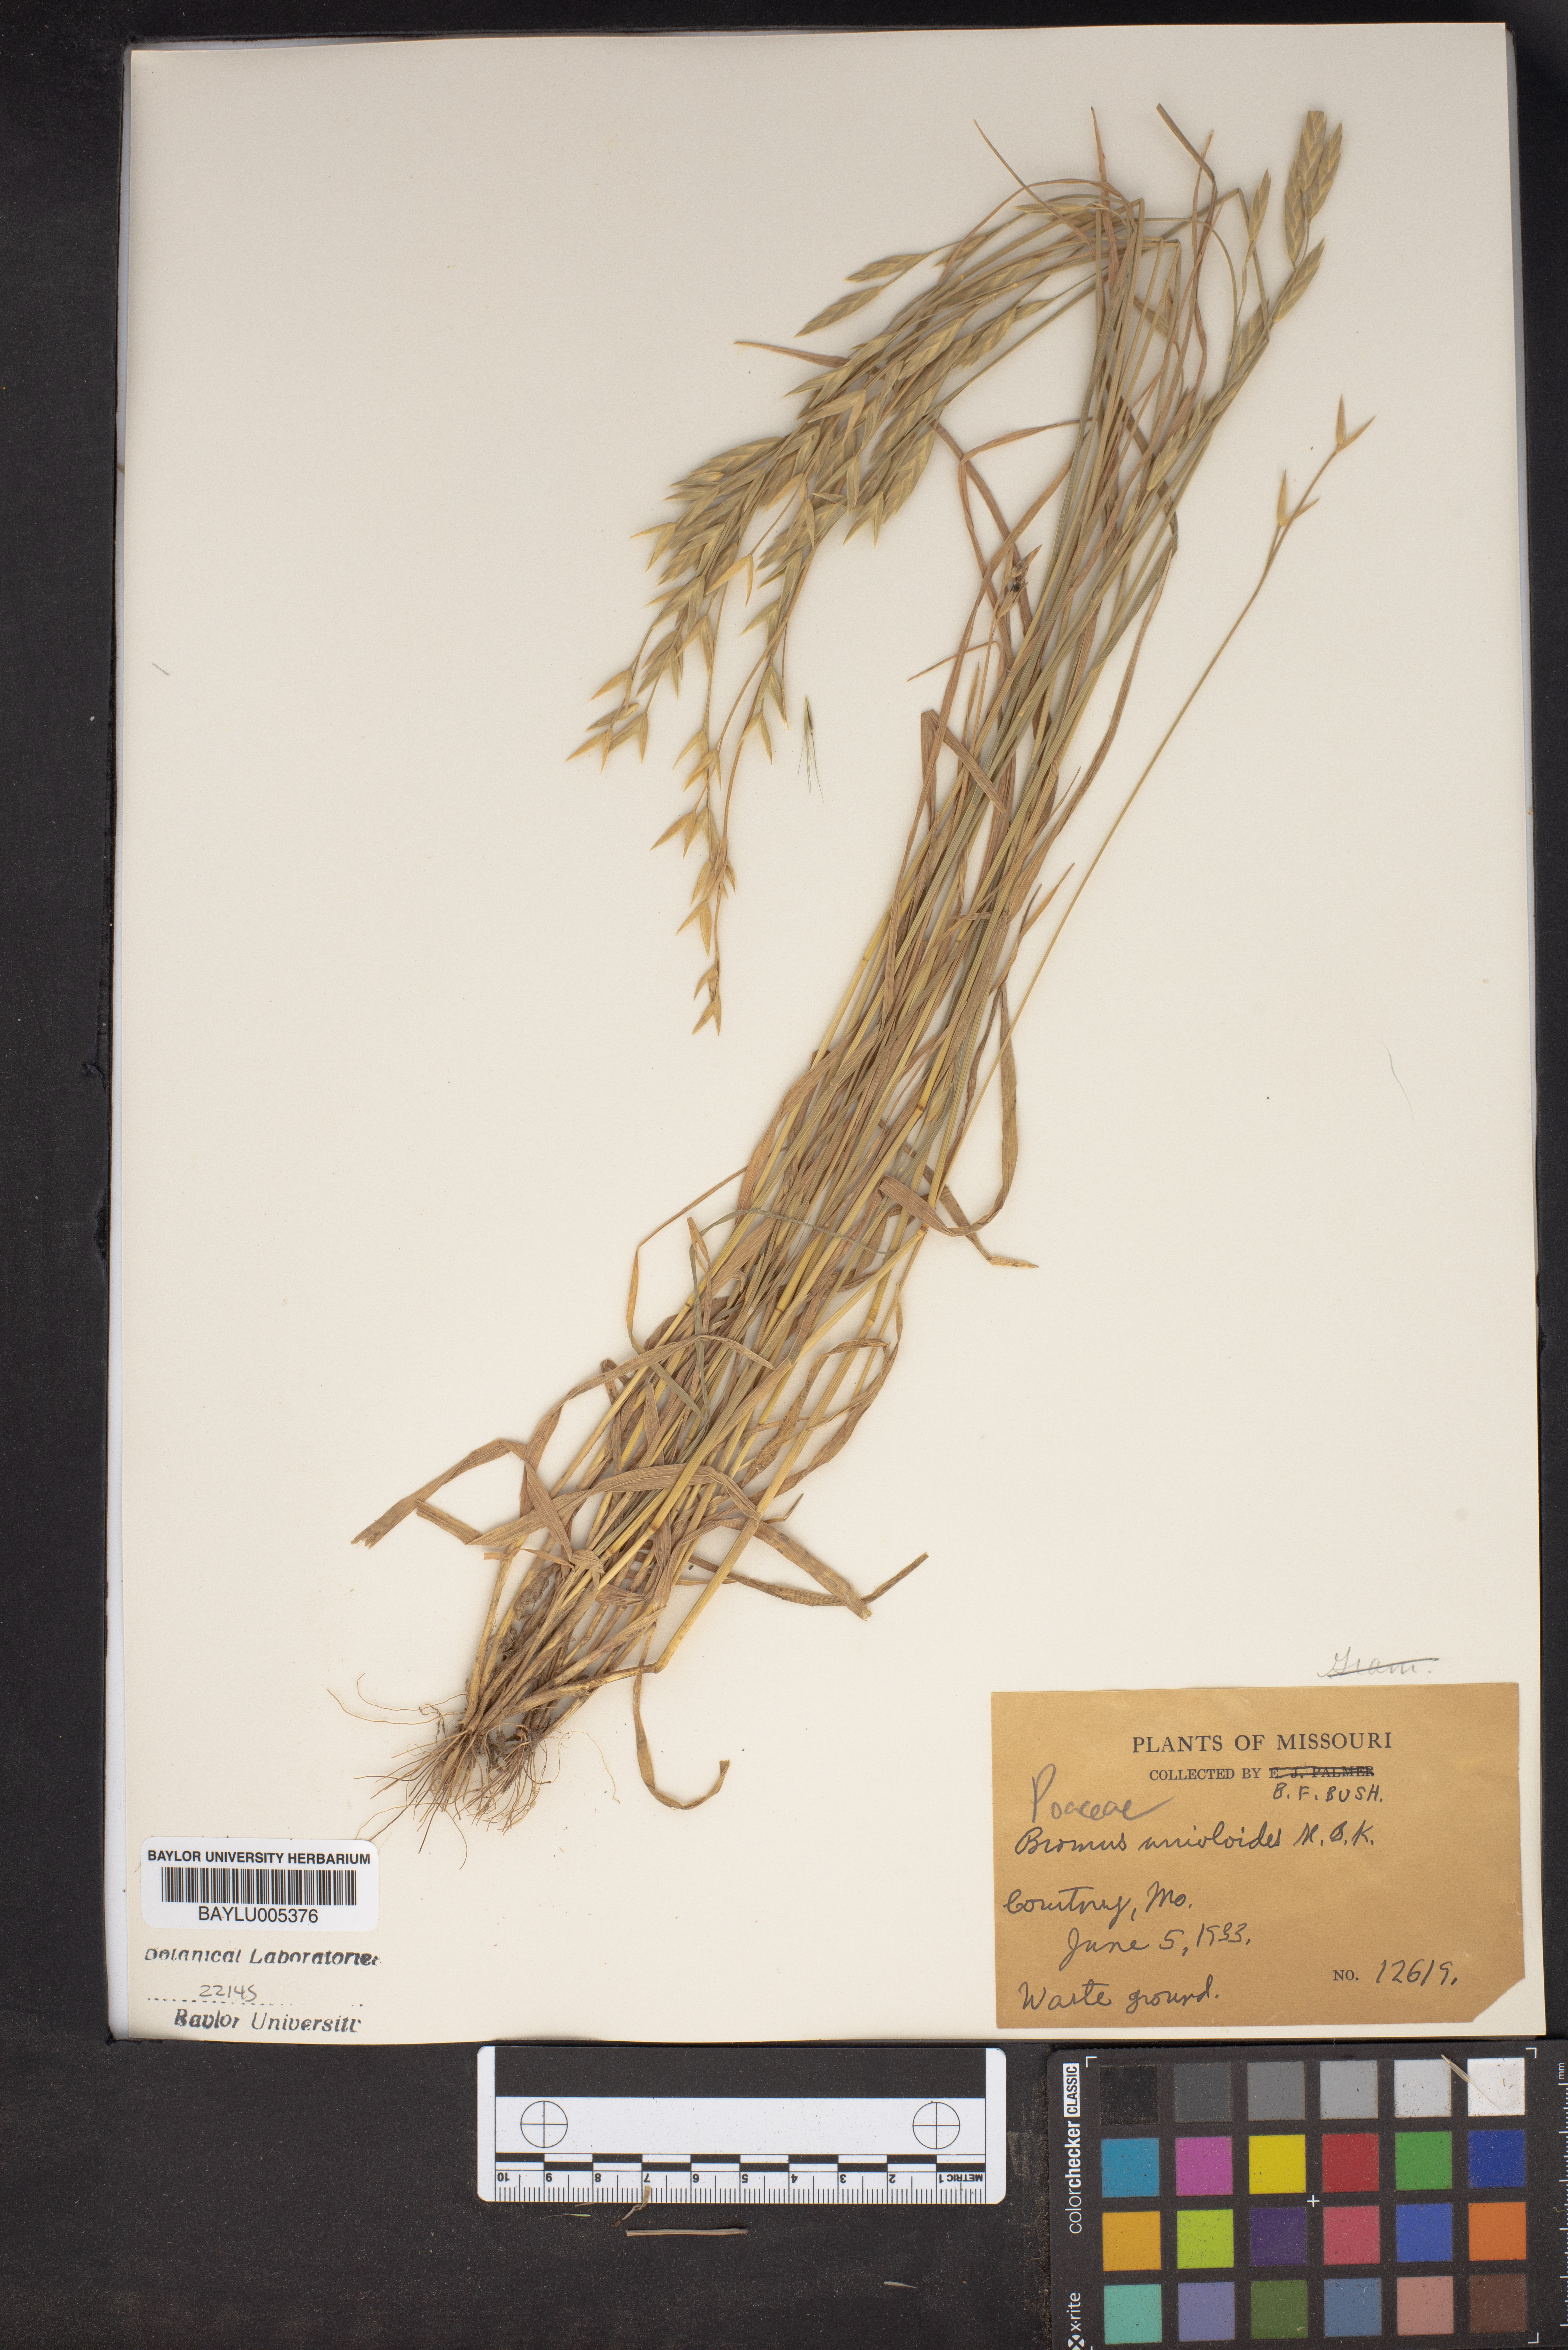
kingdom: Plantae
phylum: Tracheophyta
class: Liliopsida
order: Poales
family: Poaceae
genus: Bromus
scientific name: Bromus catharticus
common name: Rescuegrass
